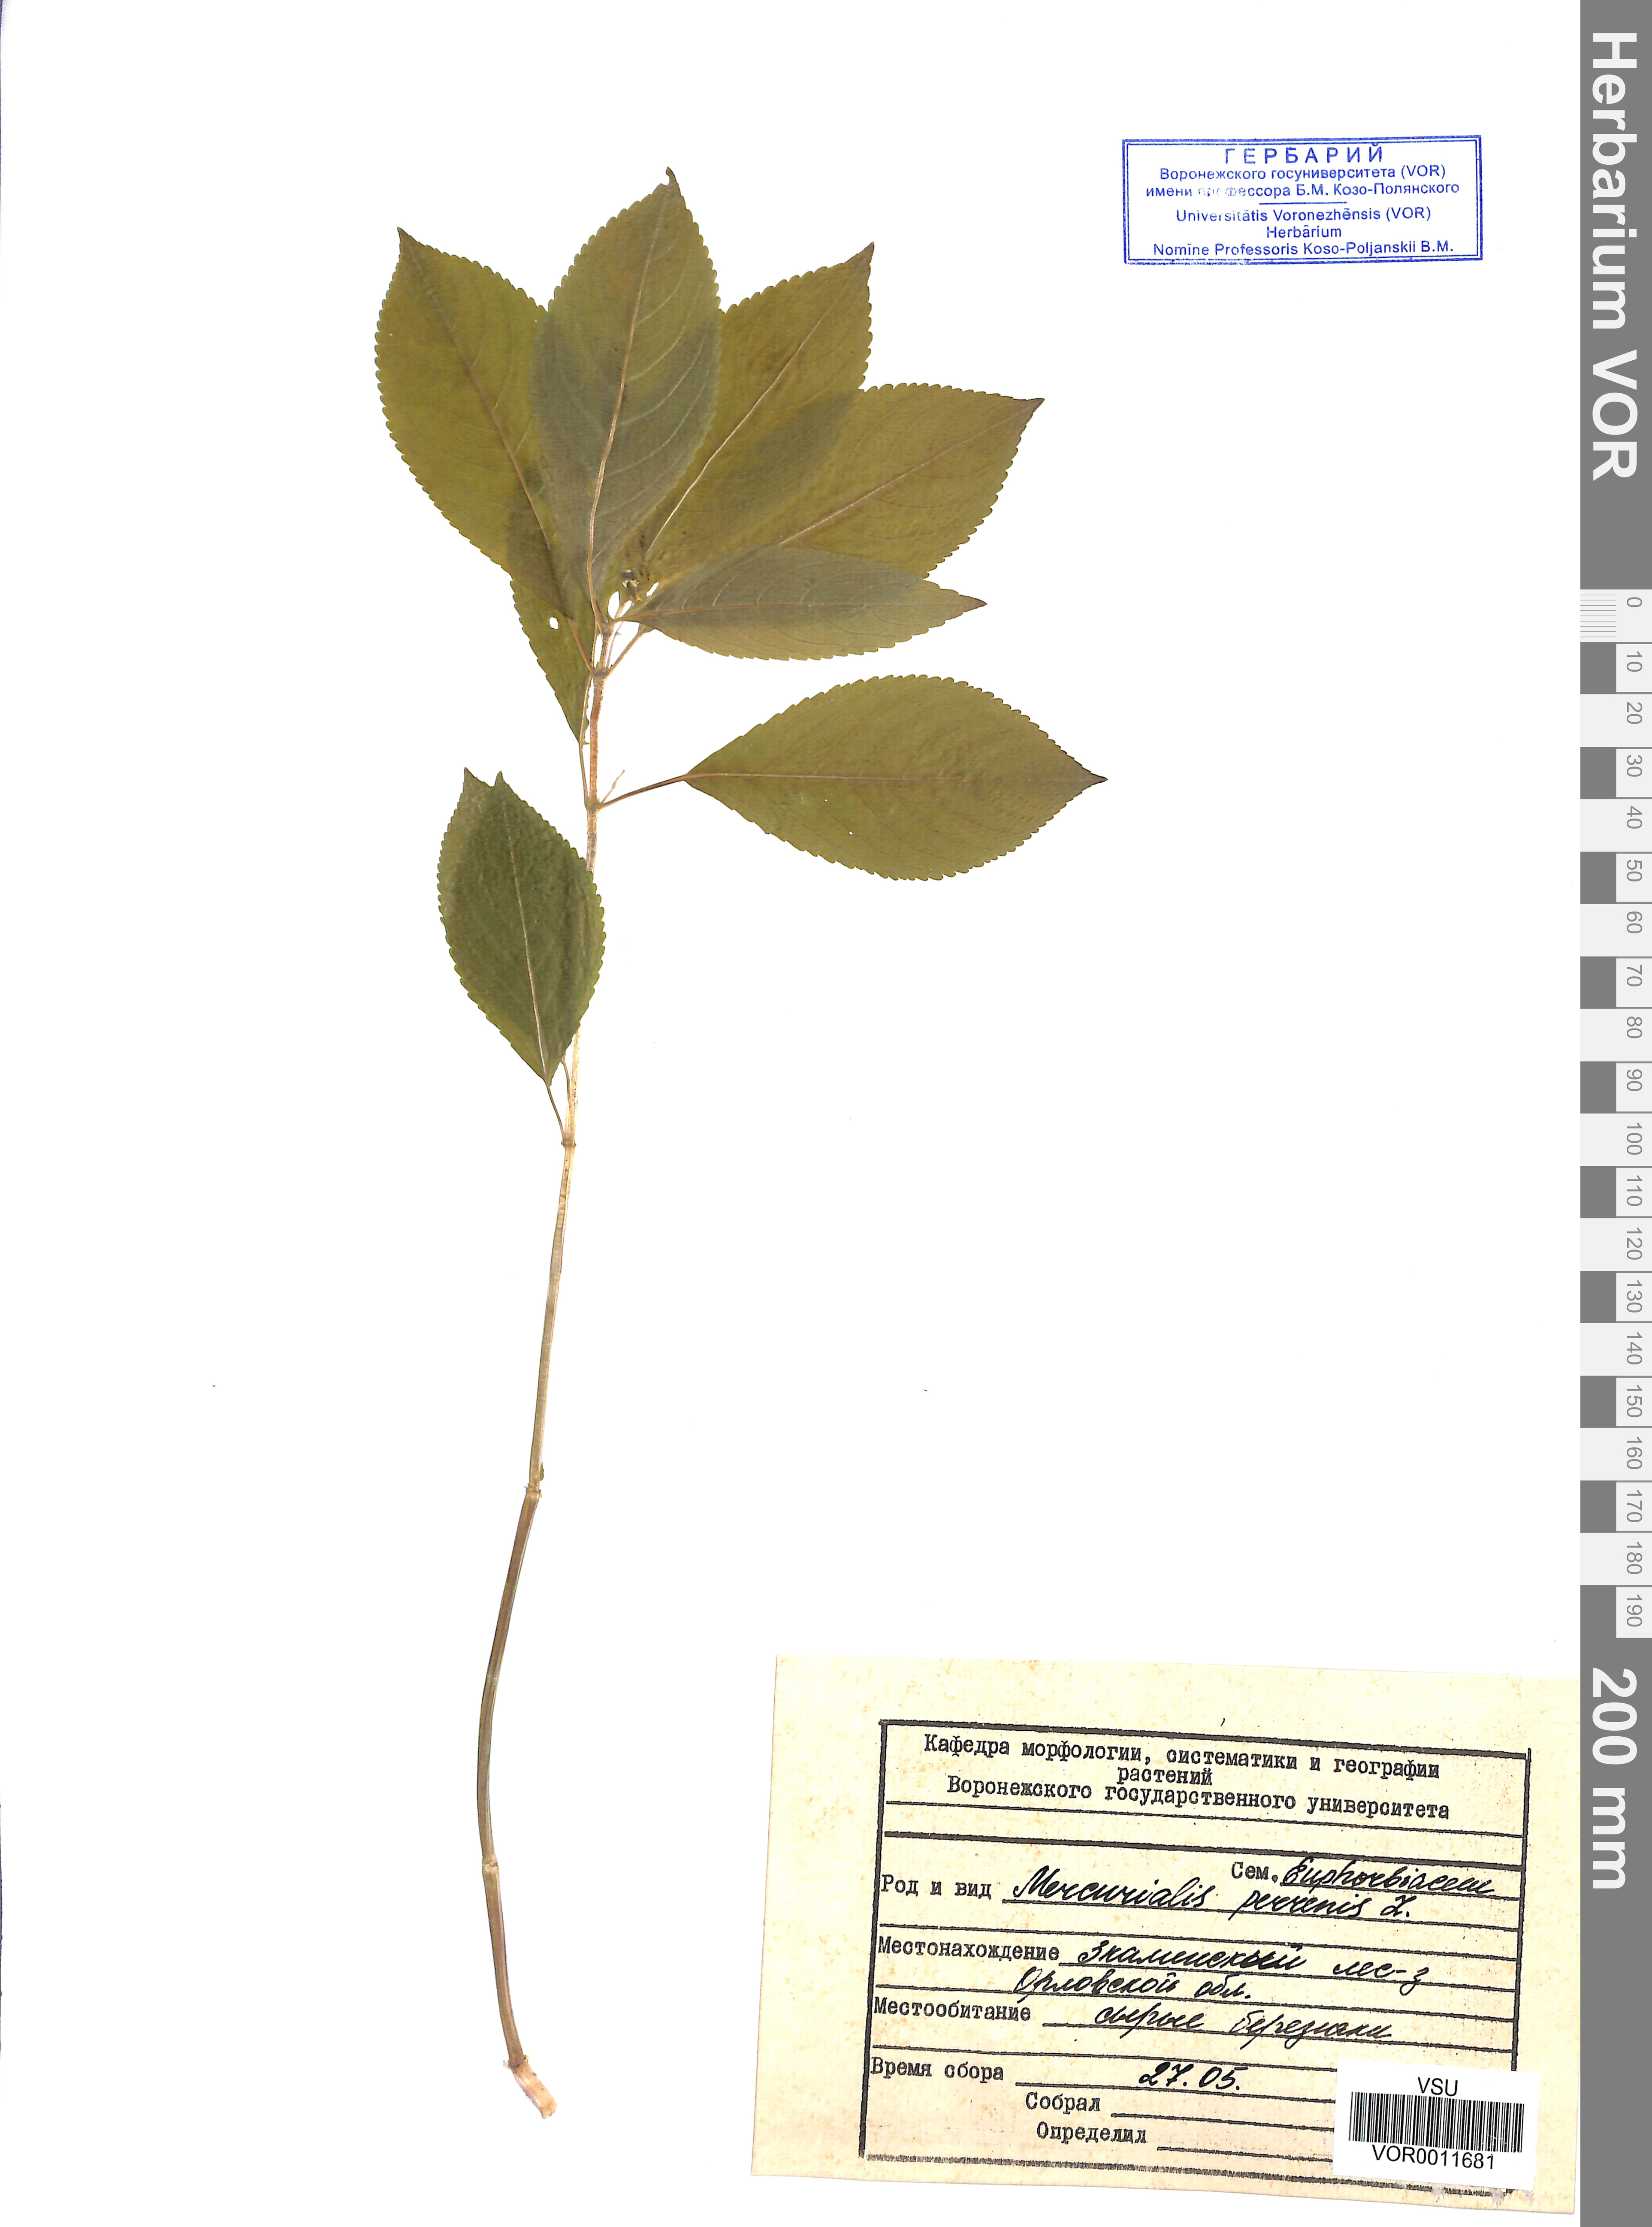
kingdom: Plantae
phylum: Tracheophyta
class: Magnoliopsida
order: Malpighiales
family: Euphorbiaceae
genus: Mercurialis
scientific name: Mercurialis perennis
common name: Dog mercury
